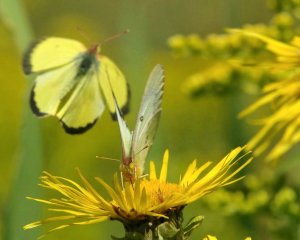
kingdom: Animalia
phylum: Arthropoda
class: Insecta
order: Lepidoptera
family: Pieridae
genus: Colias
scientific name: Colias philodice
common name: Clouded Sulphur
